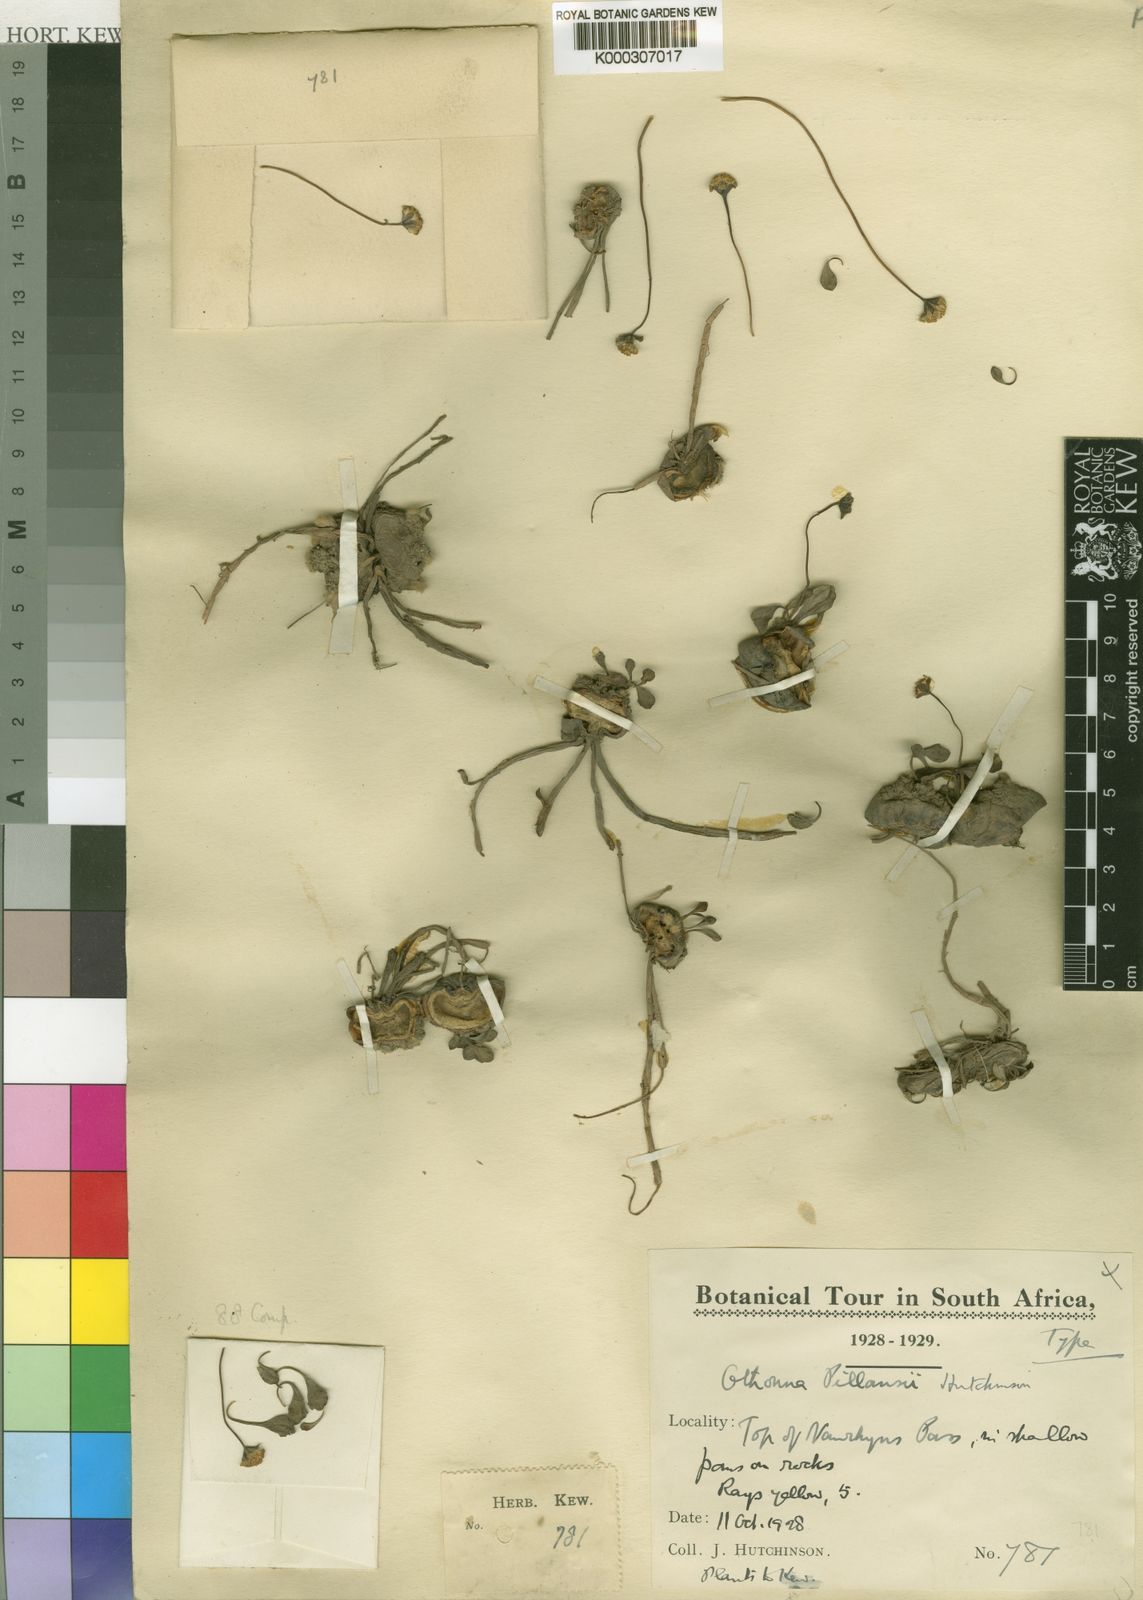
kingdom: Plantae
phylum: Tracheophyta
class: Magnoliopsida
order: Asterales
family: Asteraceae
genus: Crassothonna
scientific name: Crassothonna cacalioides
